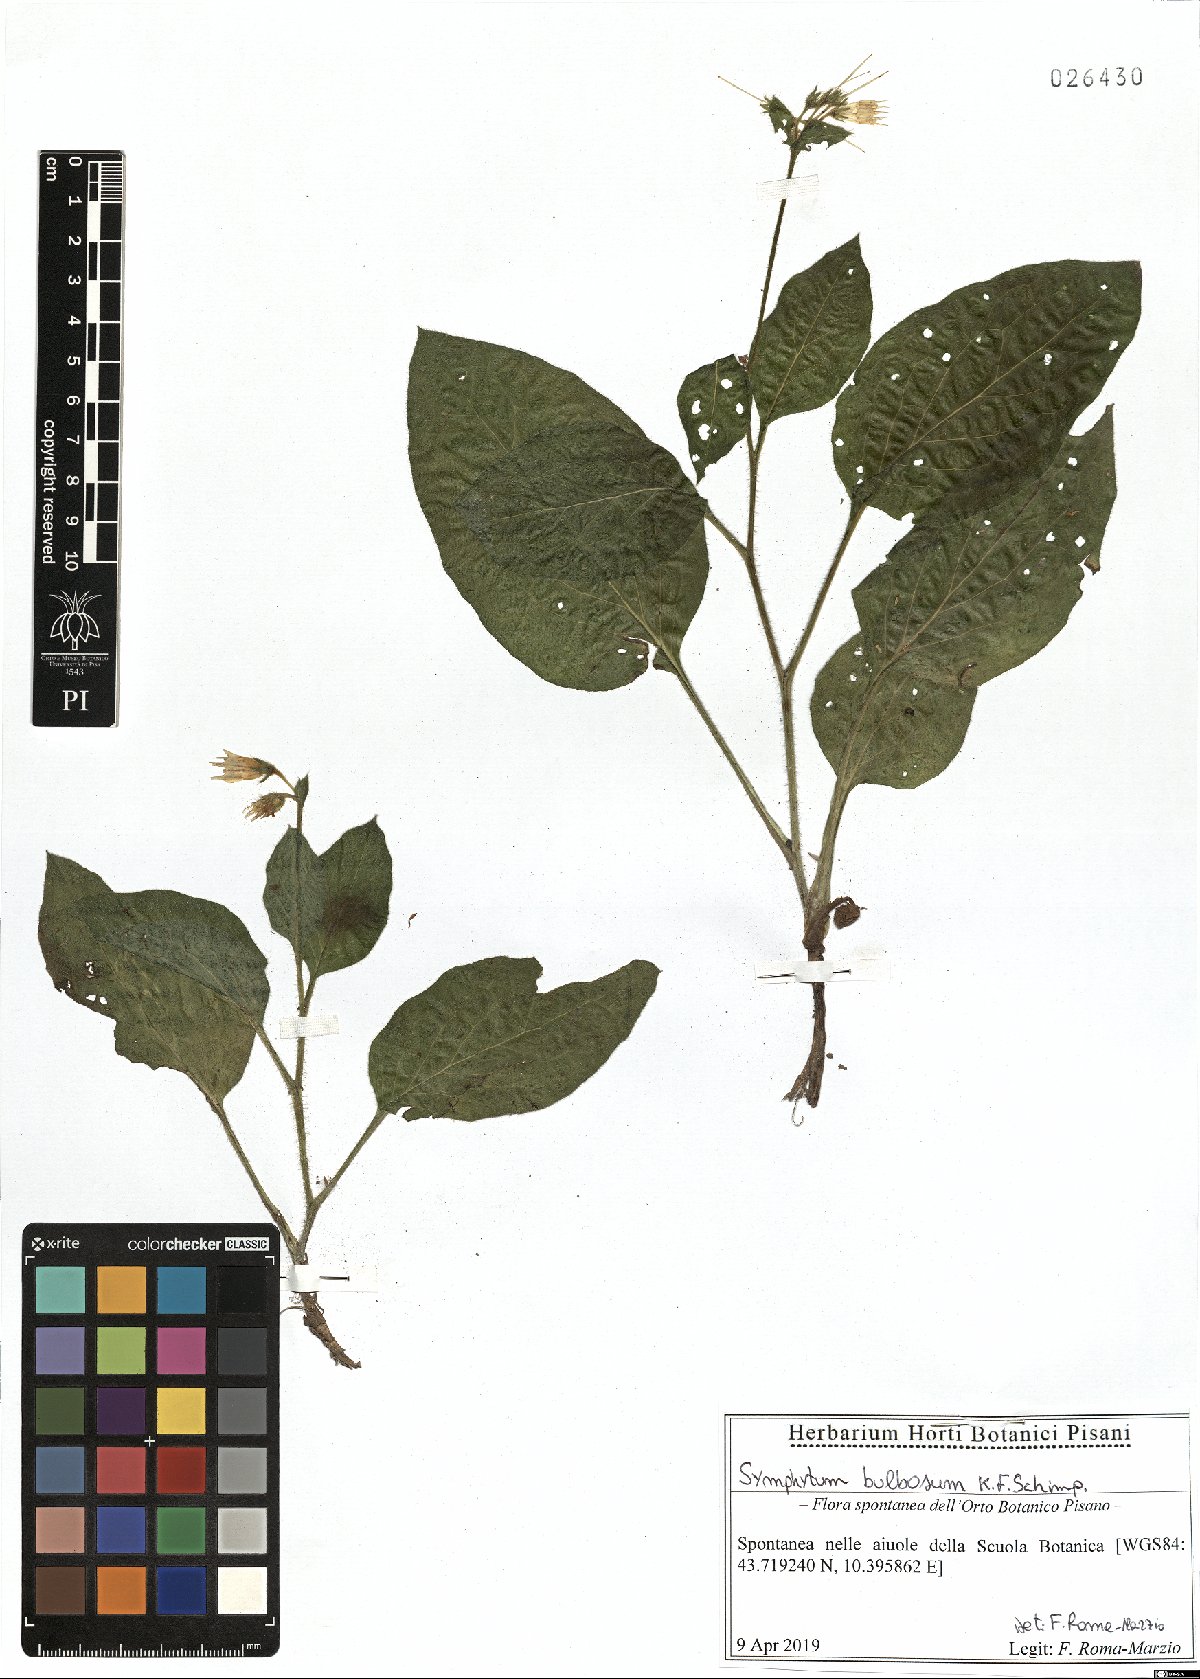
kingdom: Plantae
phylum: Tracheophyta
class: Magnoliopsida
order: Boraginales
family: Boraginaceae
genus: Symphytum
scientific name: Symphytum bulbosum
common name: Bulbous comfrey
